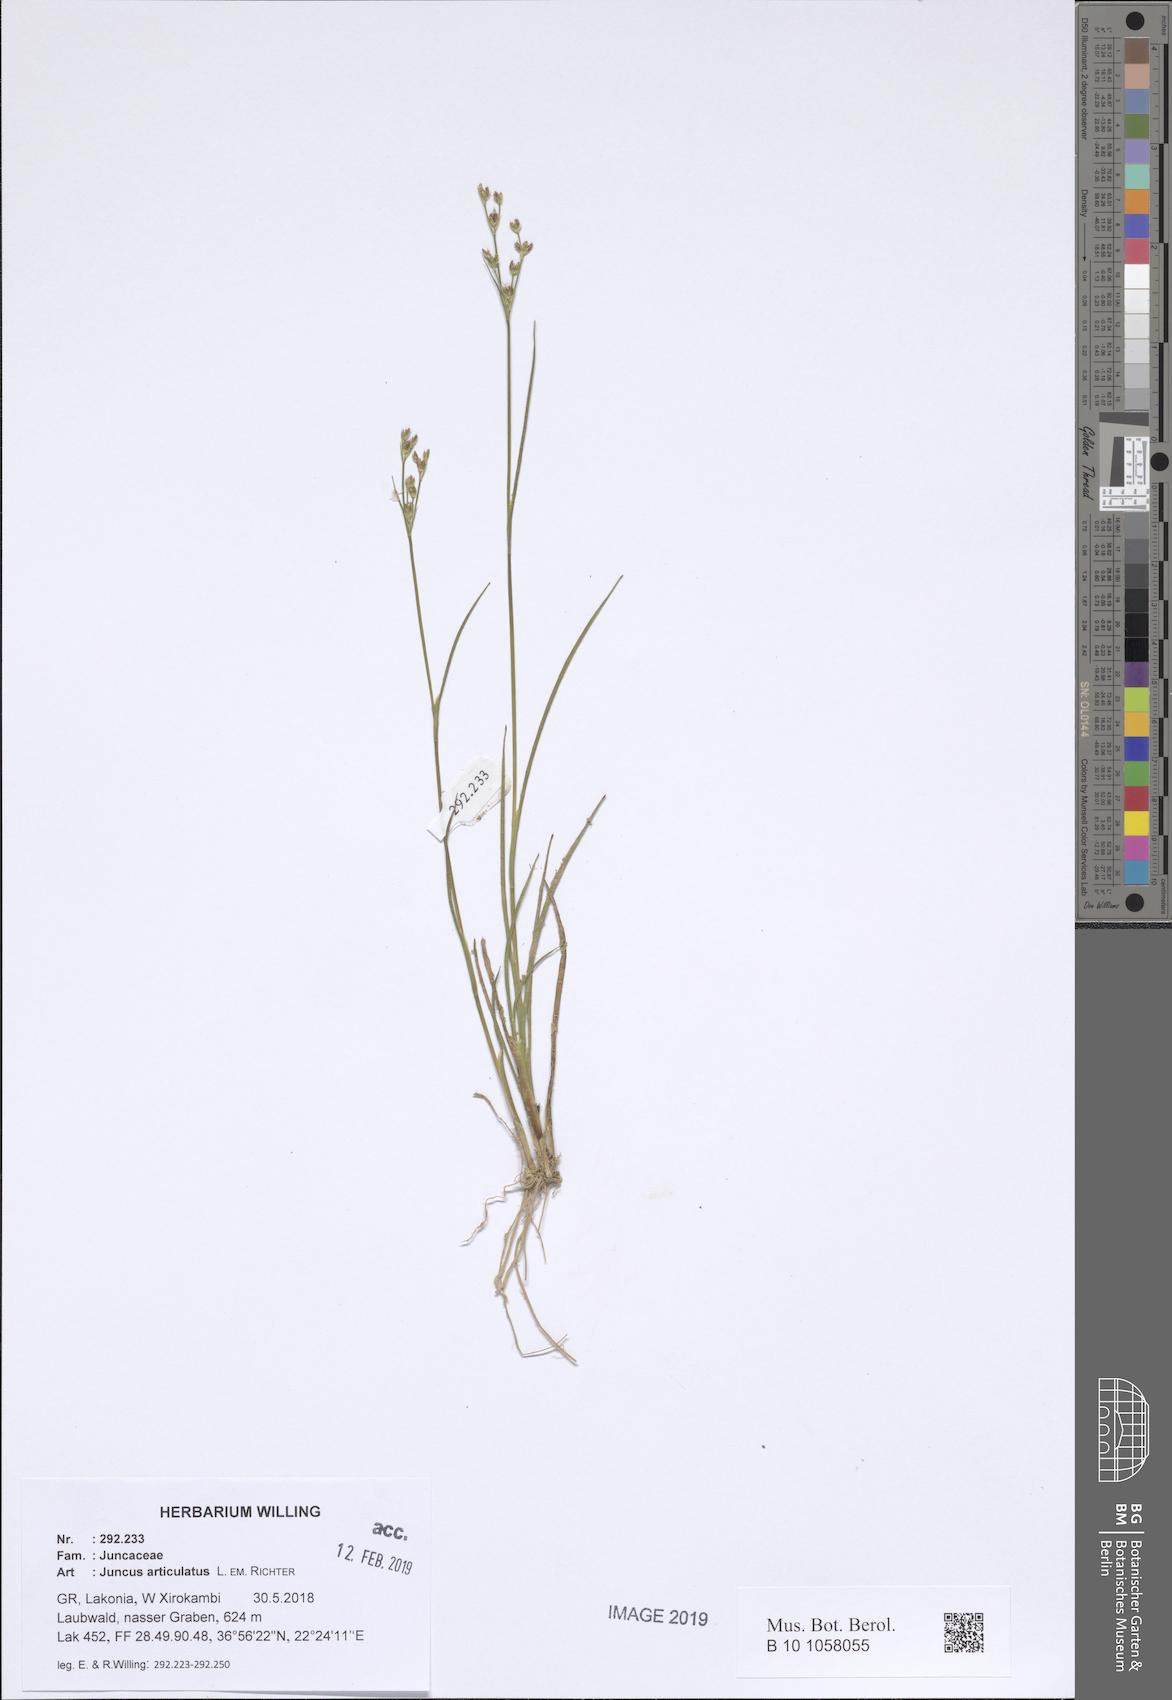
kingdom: Plantae
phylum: Tracheophyta
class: Liliopsida
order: Poales
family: Juncaceae
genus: Juncus
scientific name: Juncus articulatus
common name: Jointed rush
